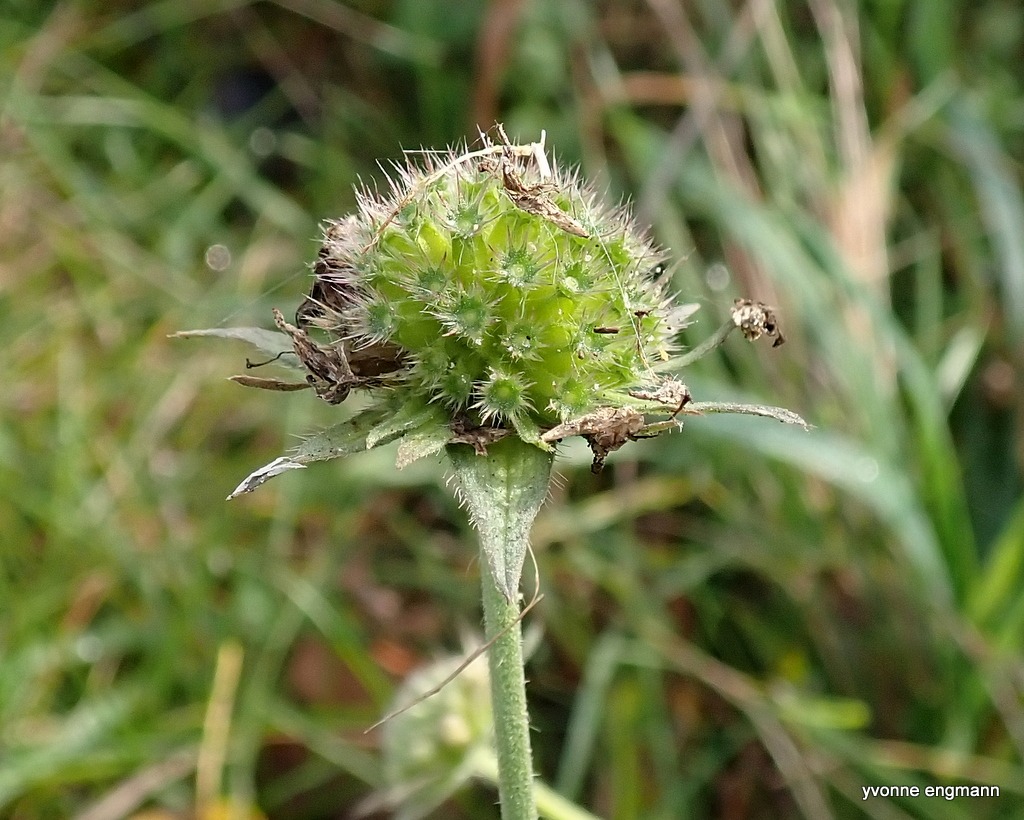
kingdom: Plantae
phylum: Tracheophyta
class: Magnoliopsida
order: Dipsacales
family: Caprifoliaceae
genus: Knautia
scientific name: Knautia arvensis
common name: Blåhat
